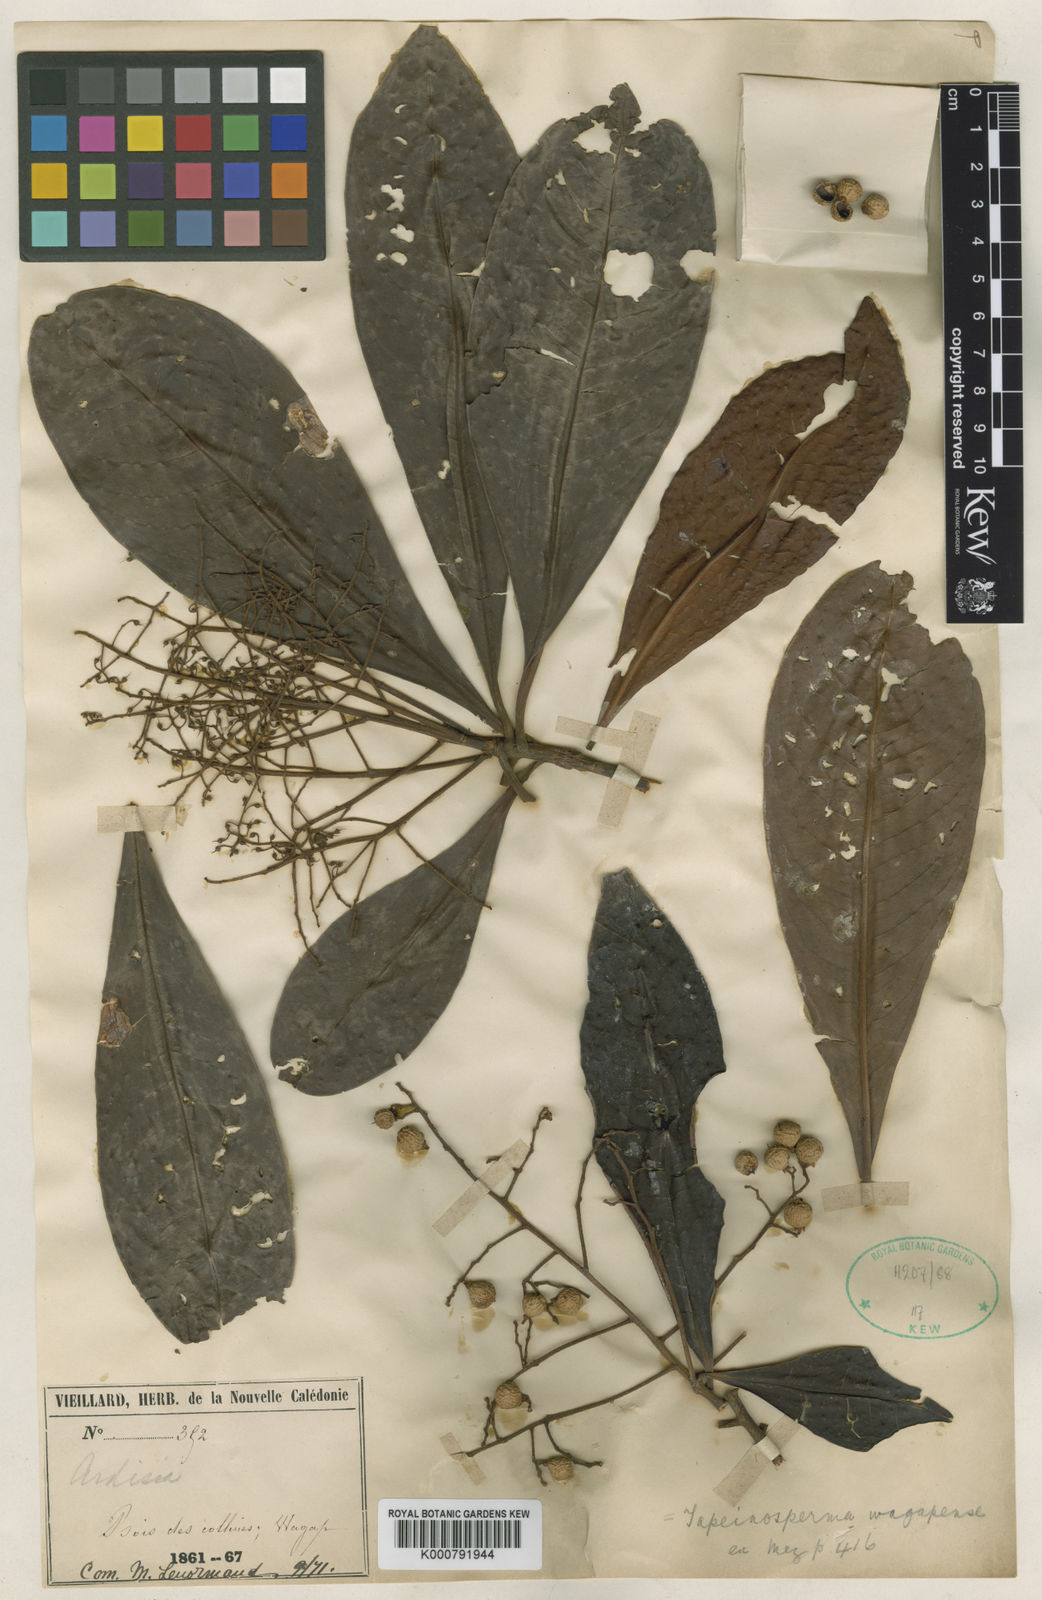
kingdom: Plantae
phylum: Tracheophyta
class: Magnoliopsida
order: Ericales
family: Primulaceae
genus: Tapeinosperma
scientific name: Tapeinosperma wagapense
